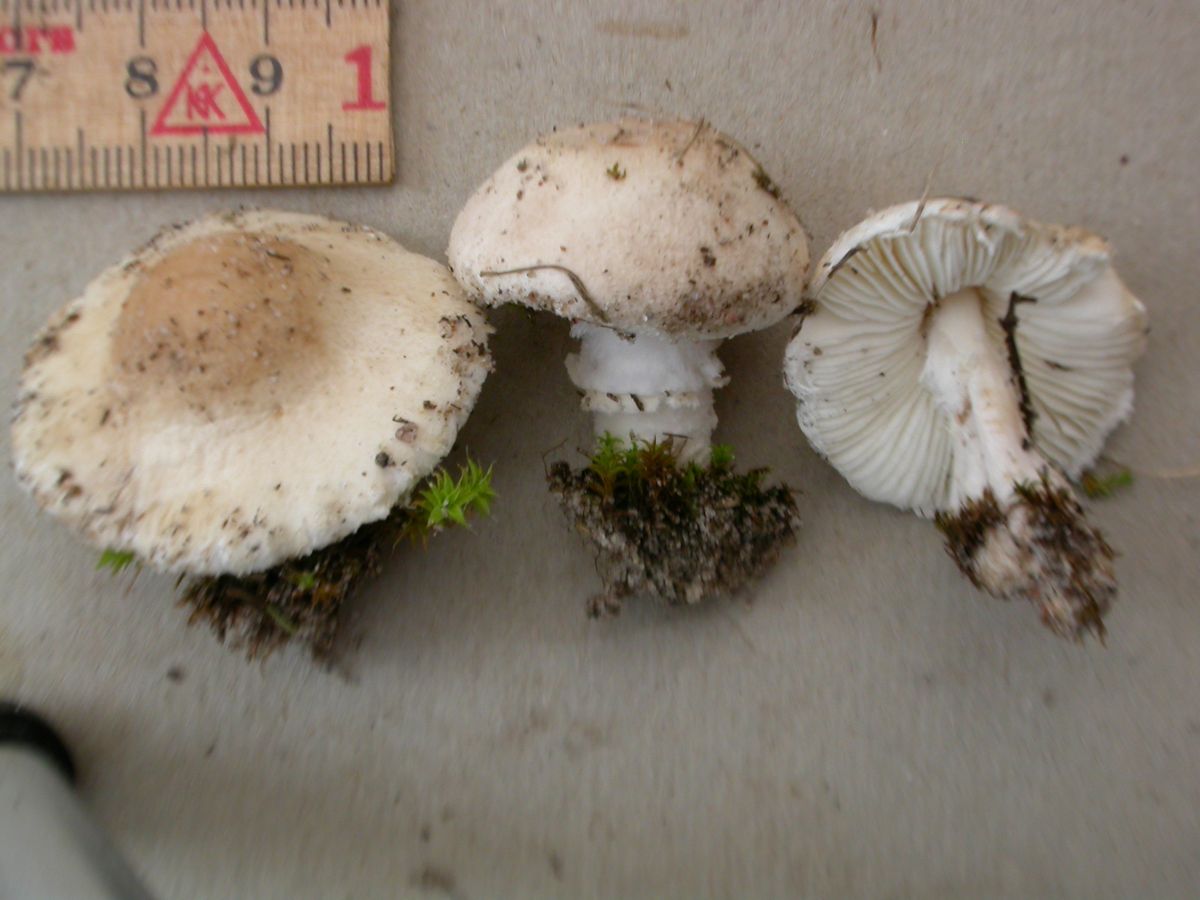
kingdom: Fungi
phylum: Basidiomycota
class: Agaricomycetes
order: Agaricales
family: Agaricaceae
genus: Lepiota
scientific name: Lepiota erminea
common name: hvid parasolhat
